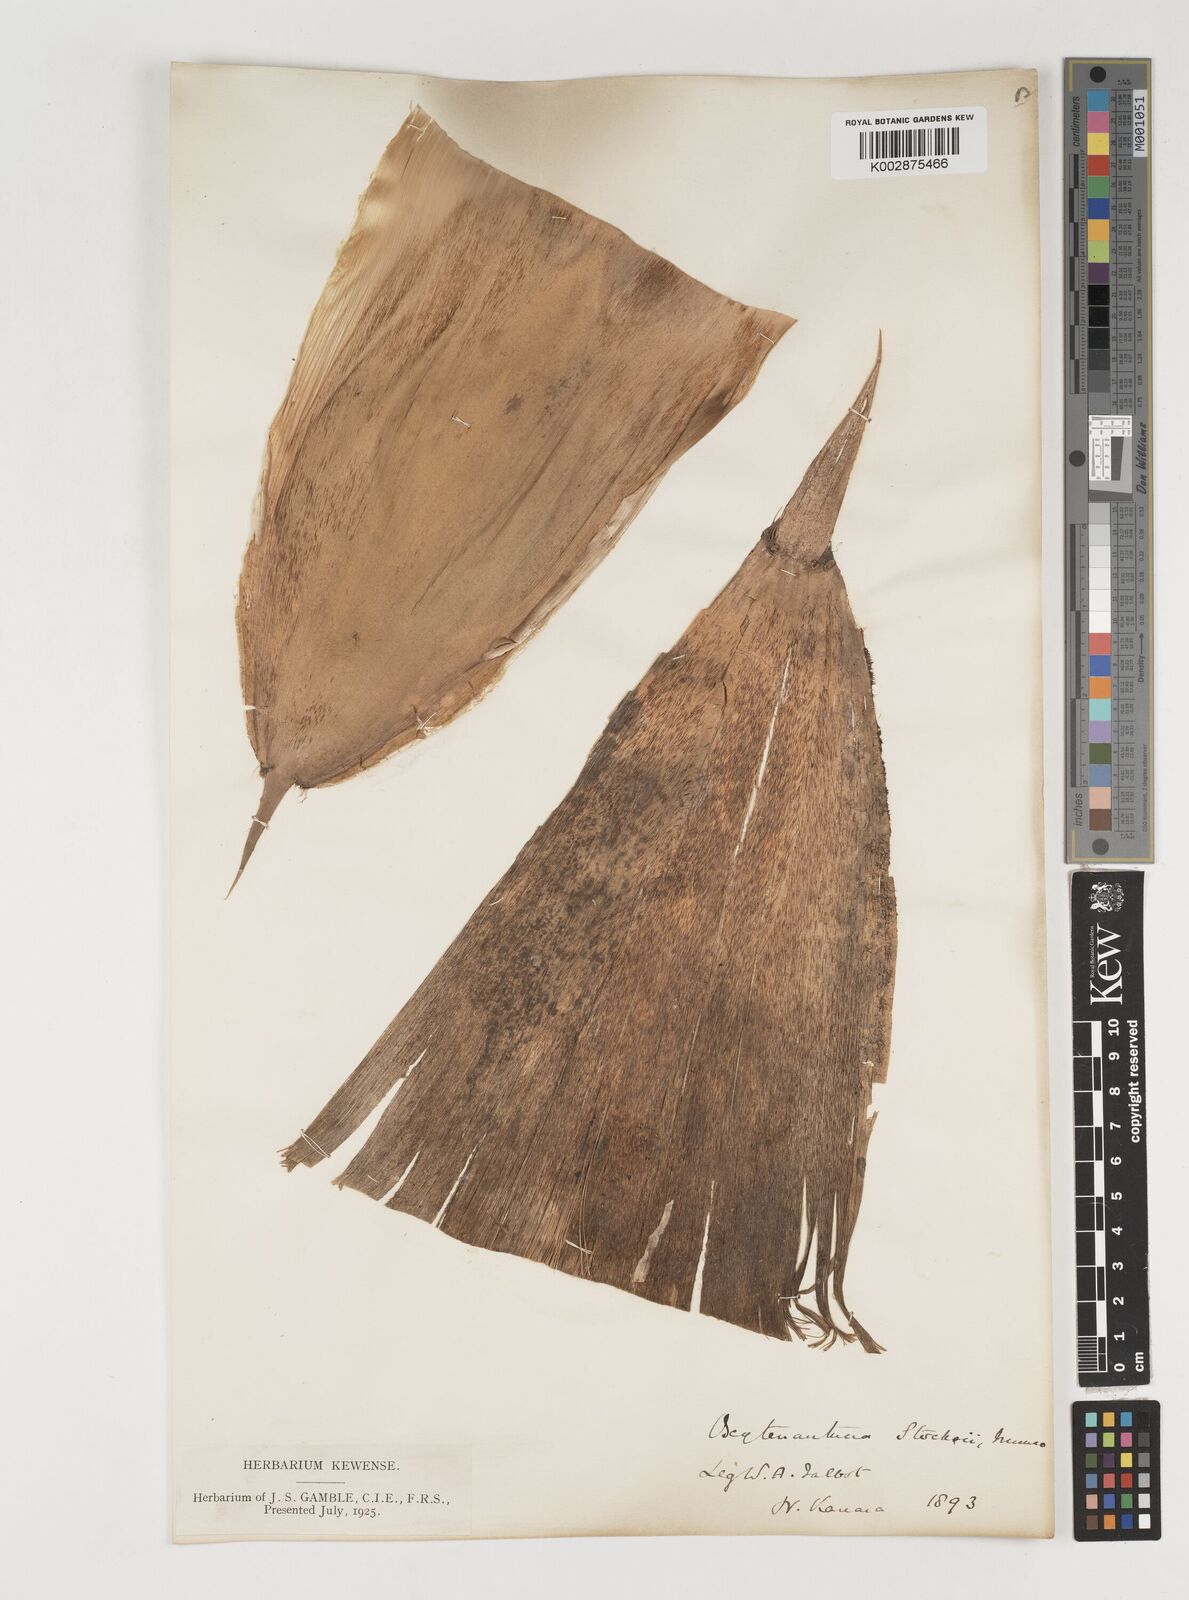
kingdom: Plantae
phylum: Tracheophyta
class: Liliopsida
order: Poales
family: Poaceae
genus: Pseudoxytenanthera
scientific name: Pseudoxytenanthera stocksii
